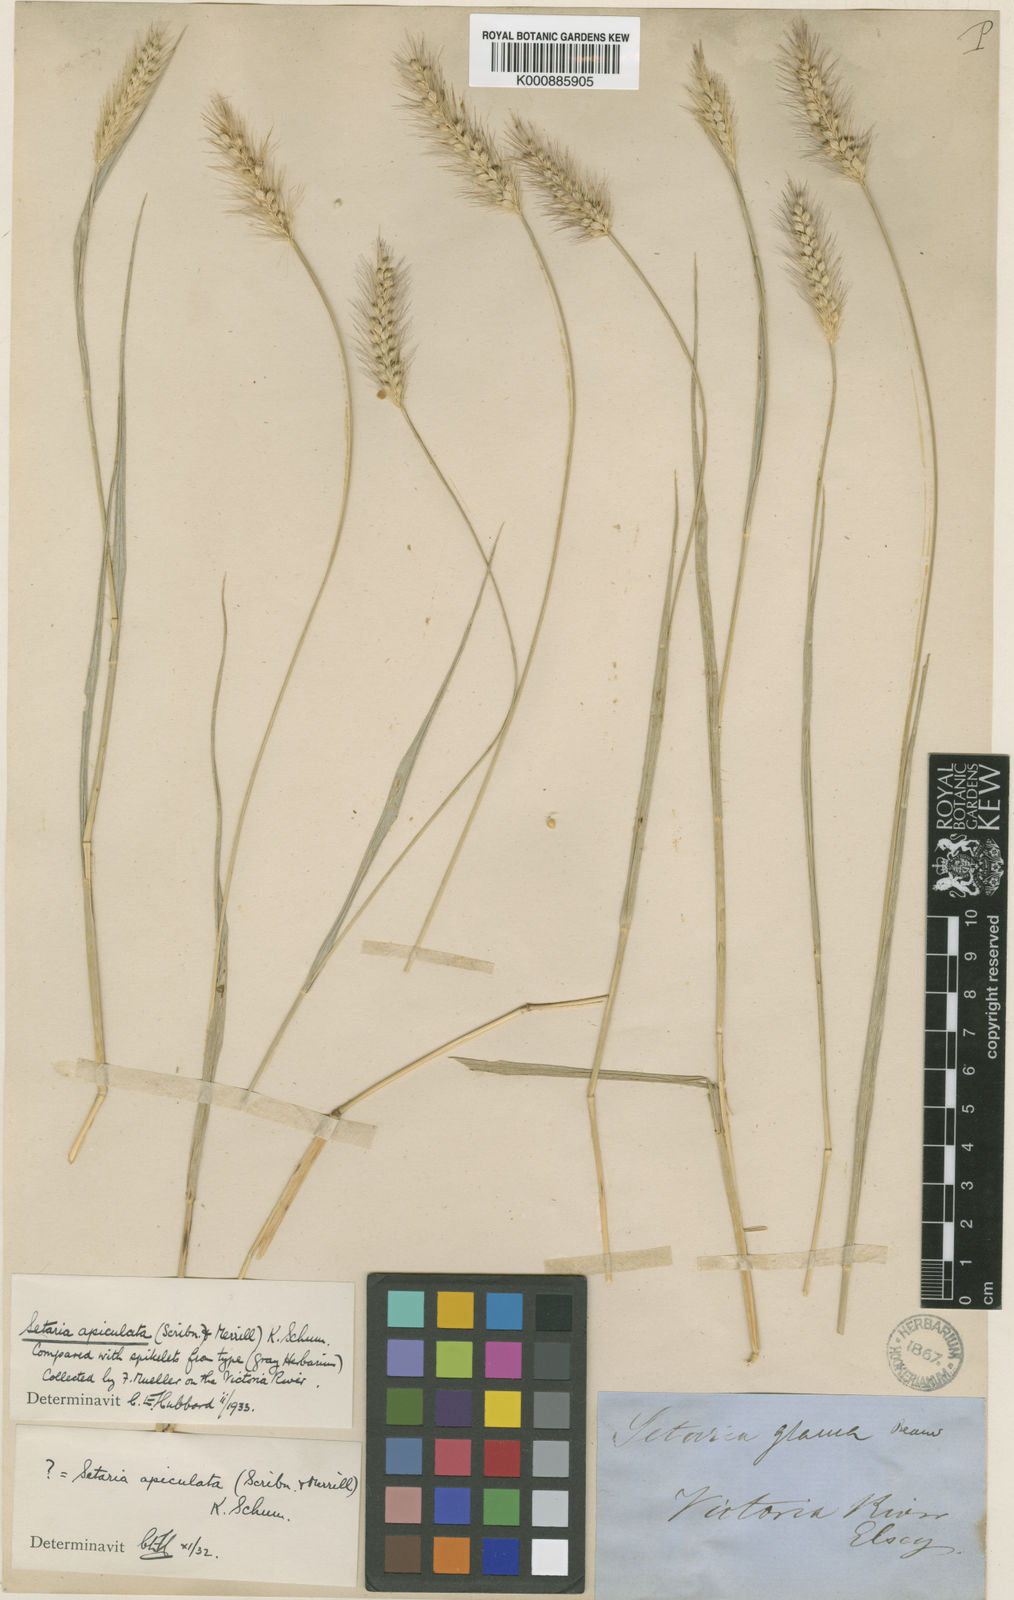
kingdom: Plantae
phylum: Tracheophyta
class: Liliopsida
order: Poales
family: Poaceae
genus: Setaria
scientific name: Setaria apiculata
